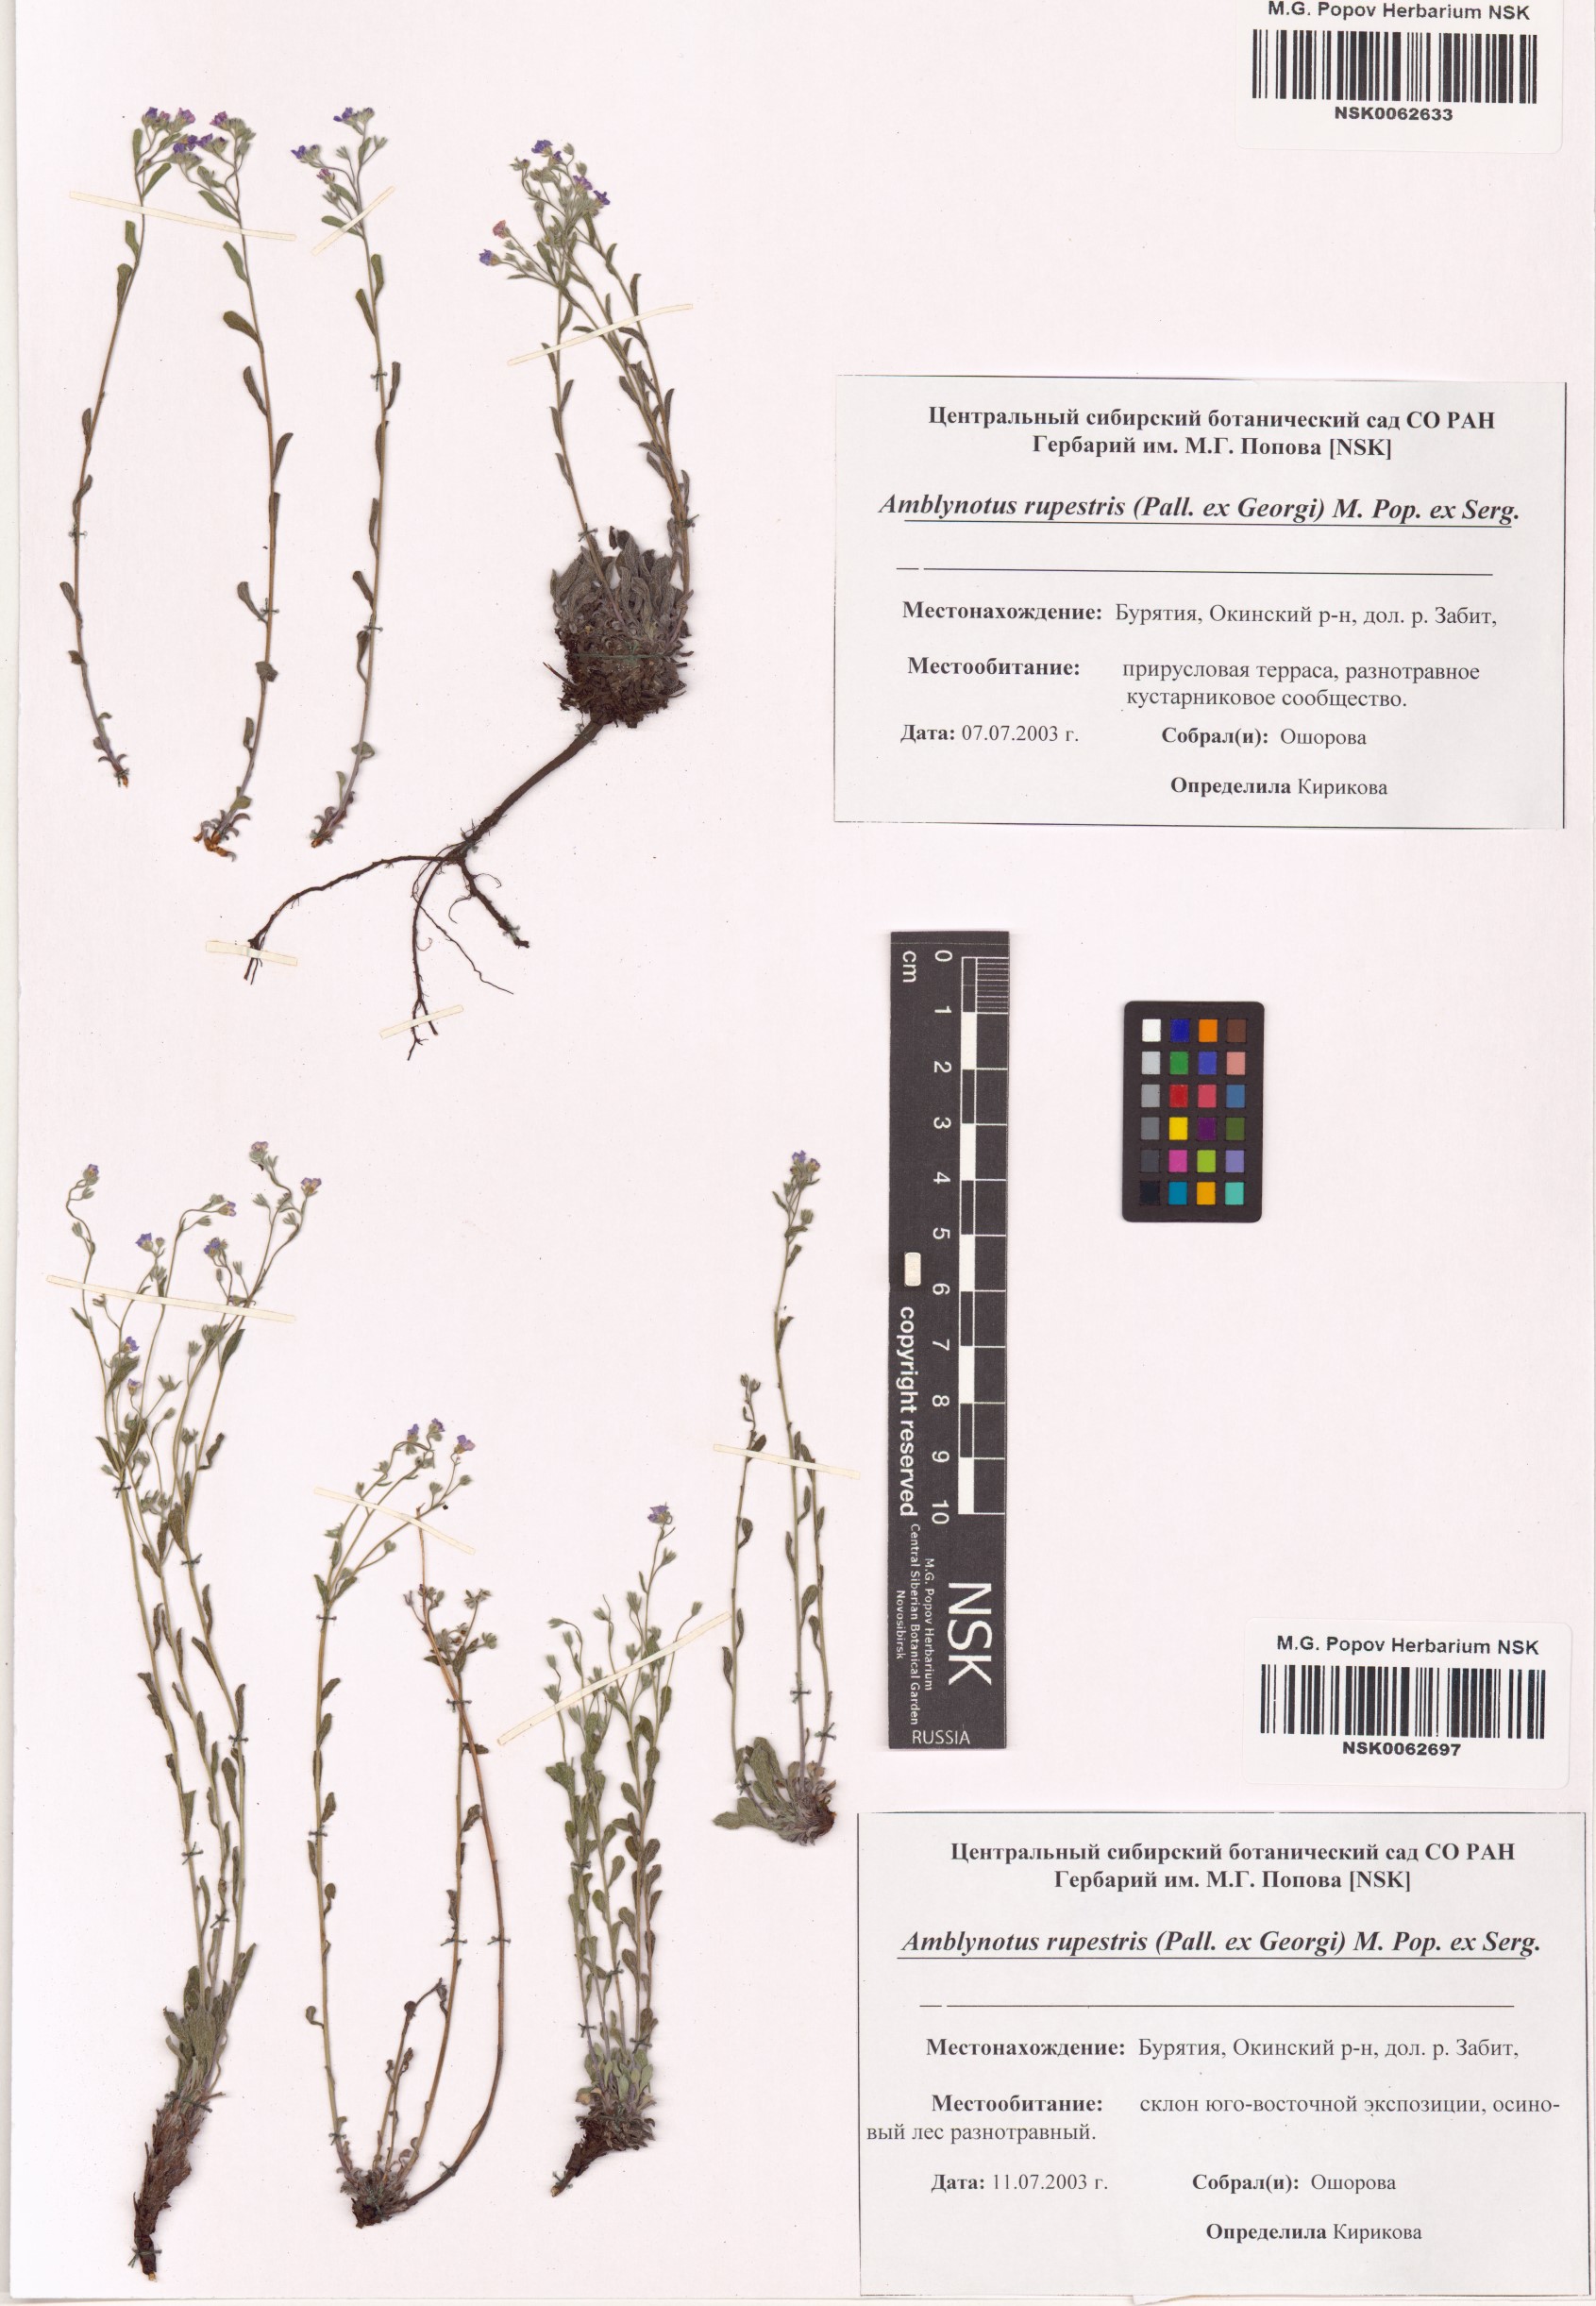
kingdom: Plantae
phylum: Tracheophyta
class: Magnoliopsida
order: Boraginales
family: Boraginaceae
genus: Eritrichium
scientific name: Eritrichium rupestre
